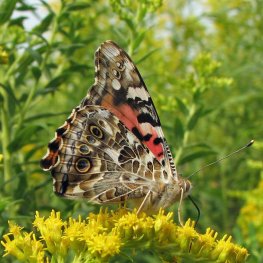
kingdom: Animalia
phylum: Arthropoda
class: Insecta
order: Lepidoptera
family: Nymphalidae
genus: Vanessa
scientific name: Vanessa cardui
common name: Painted Lady
